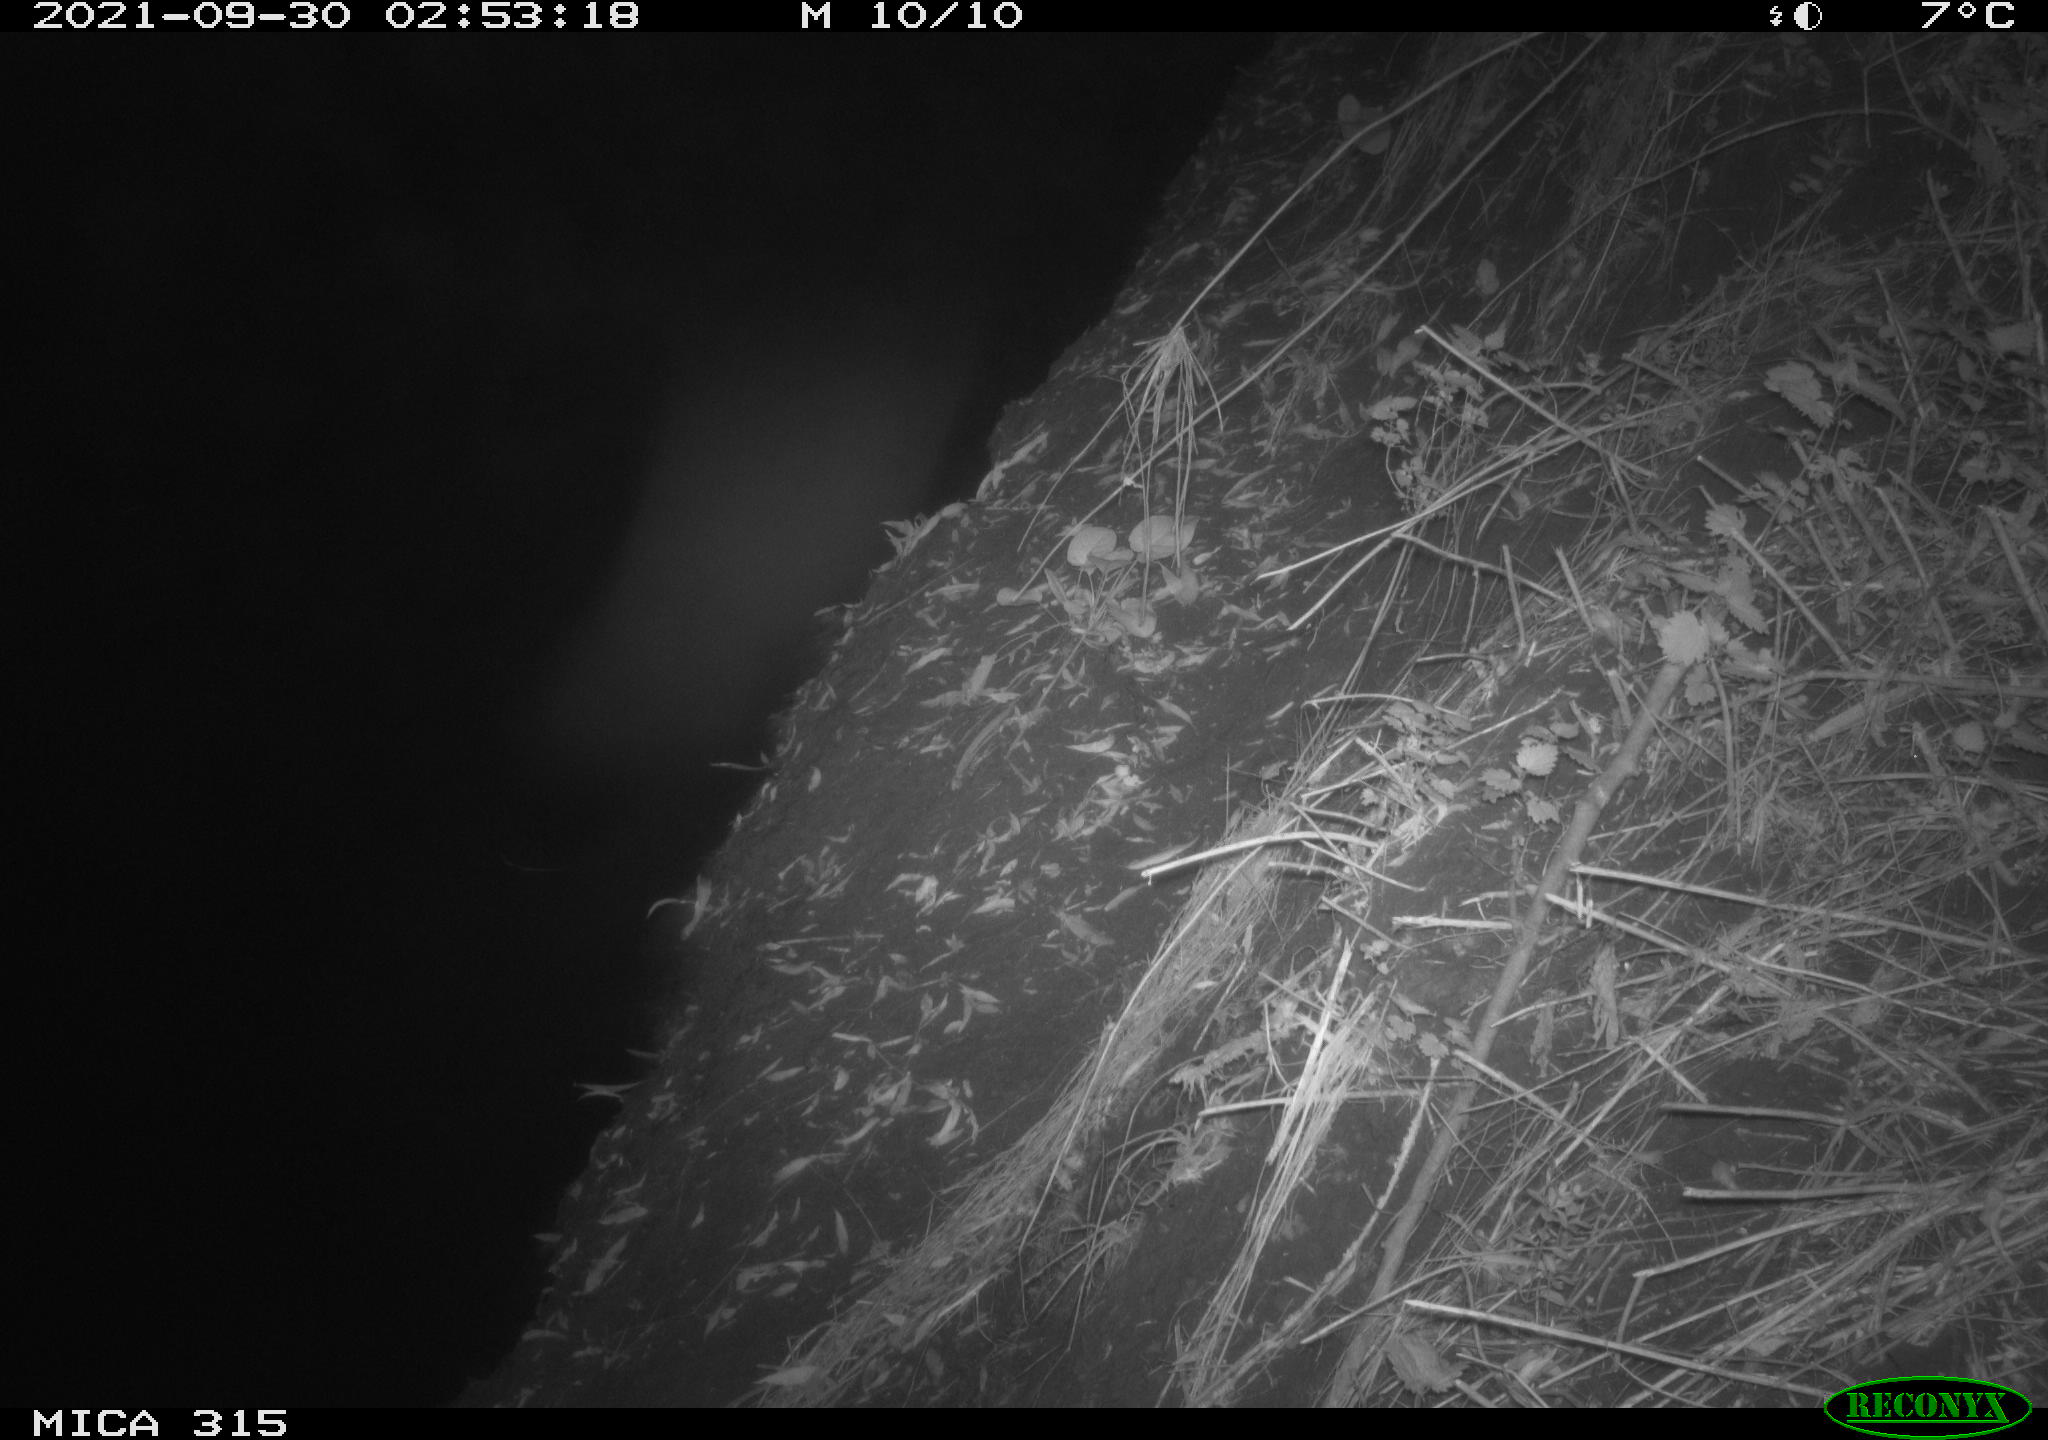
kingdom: Animalia
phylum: Chordata
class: Aves
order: Anseriformes
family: Anatidae
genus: Anas
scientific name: Anas platyrhynchos
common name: Mallard
